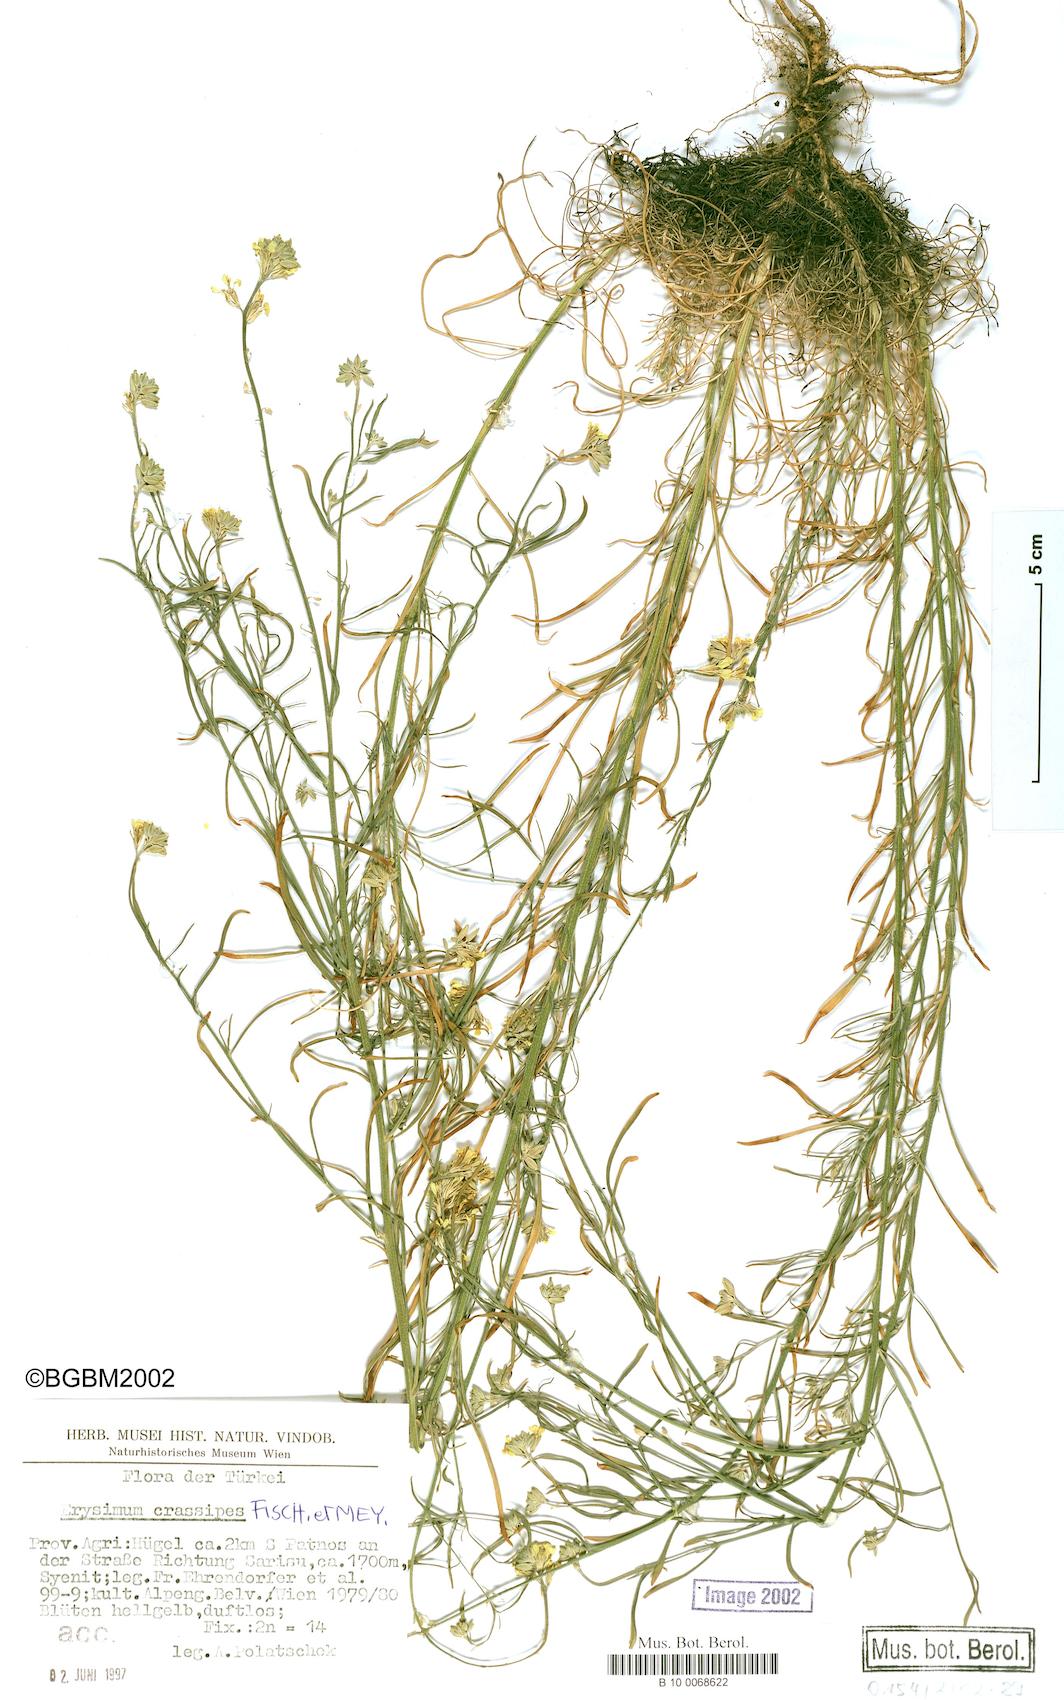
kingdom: Plantae
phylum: Tracheophyta
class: Magnoliopsida
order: Brassicales
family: Brassicaceae
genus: Erysimum
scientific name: Erysimum crassipes
